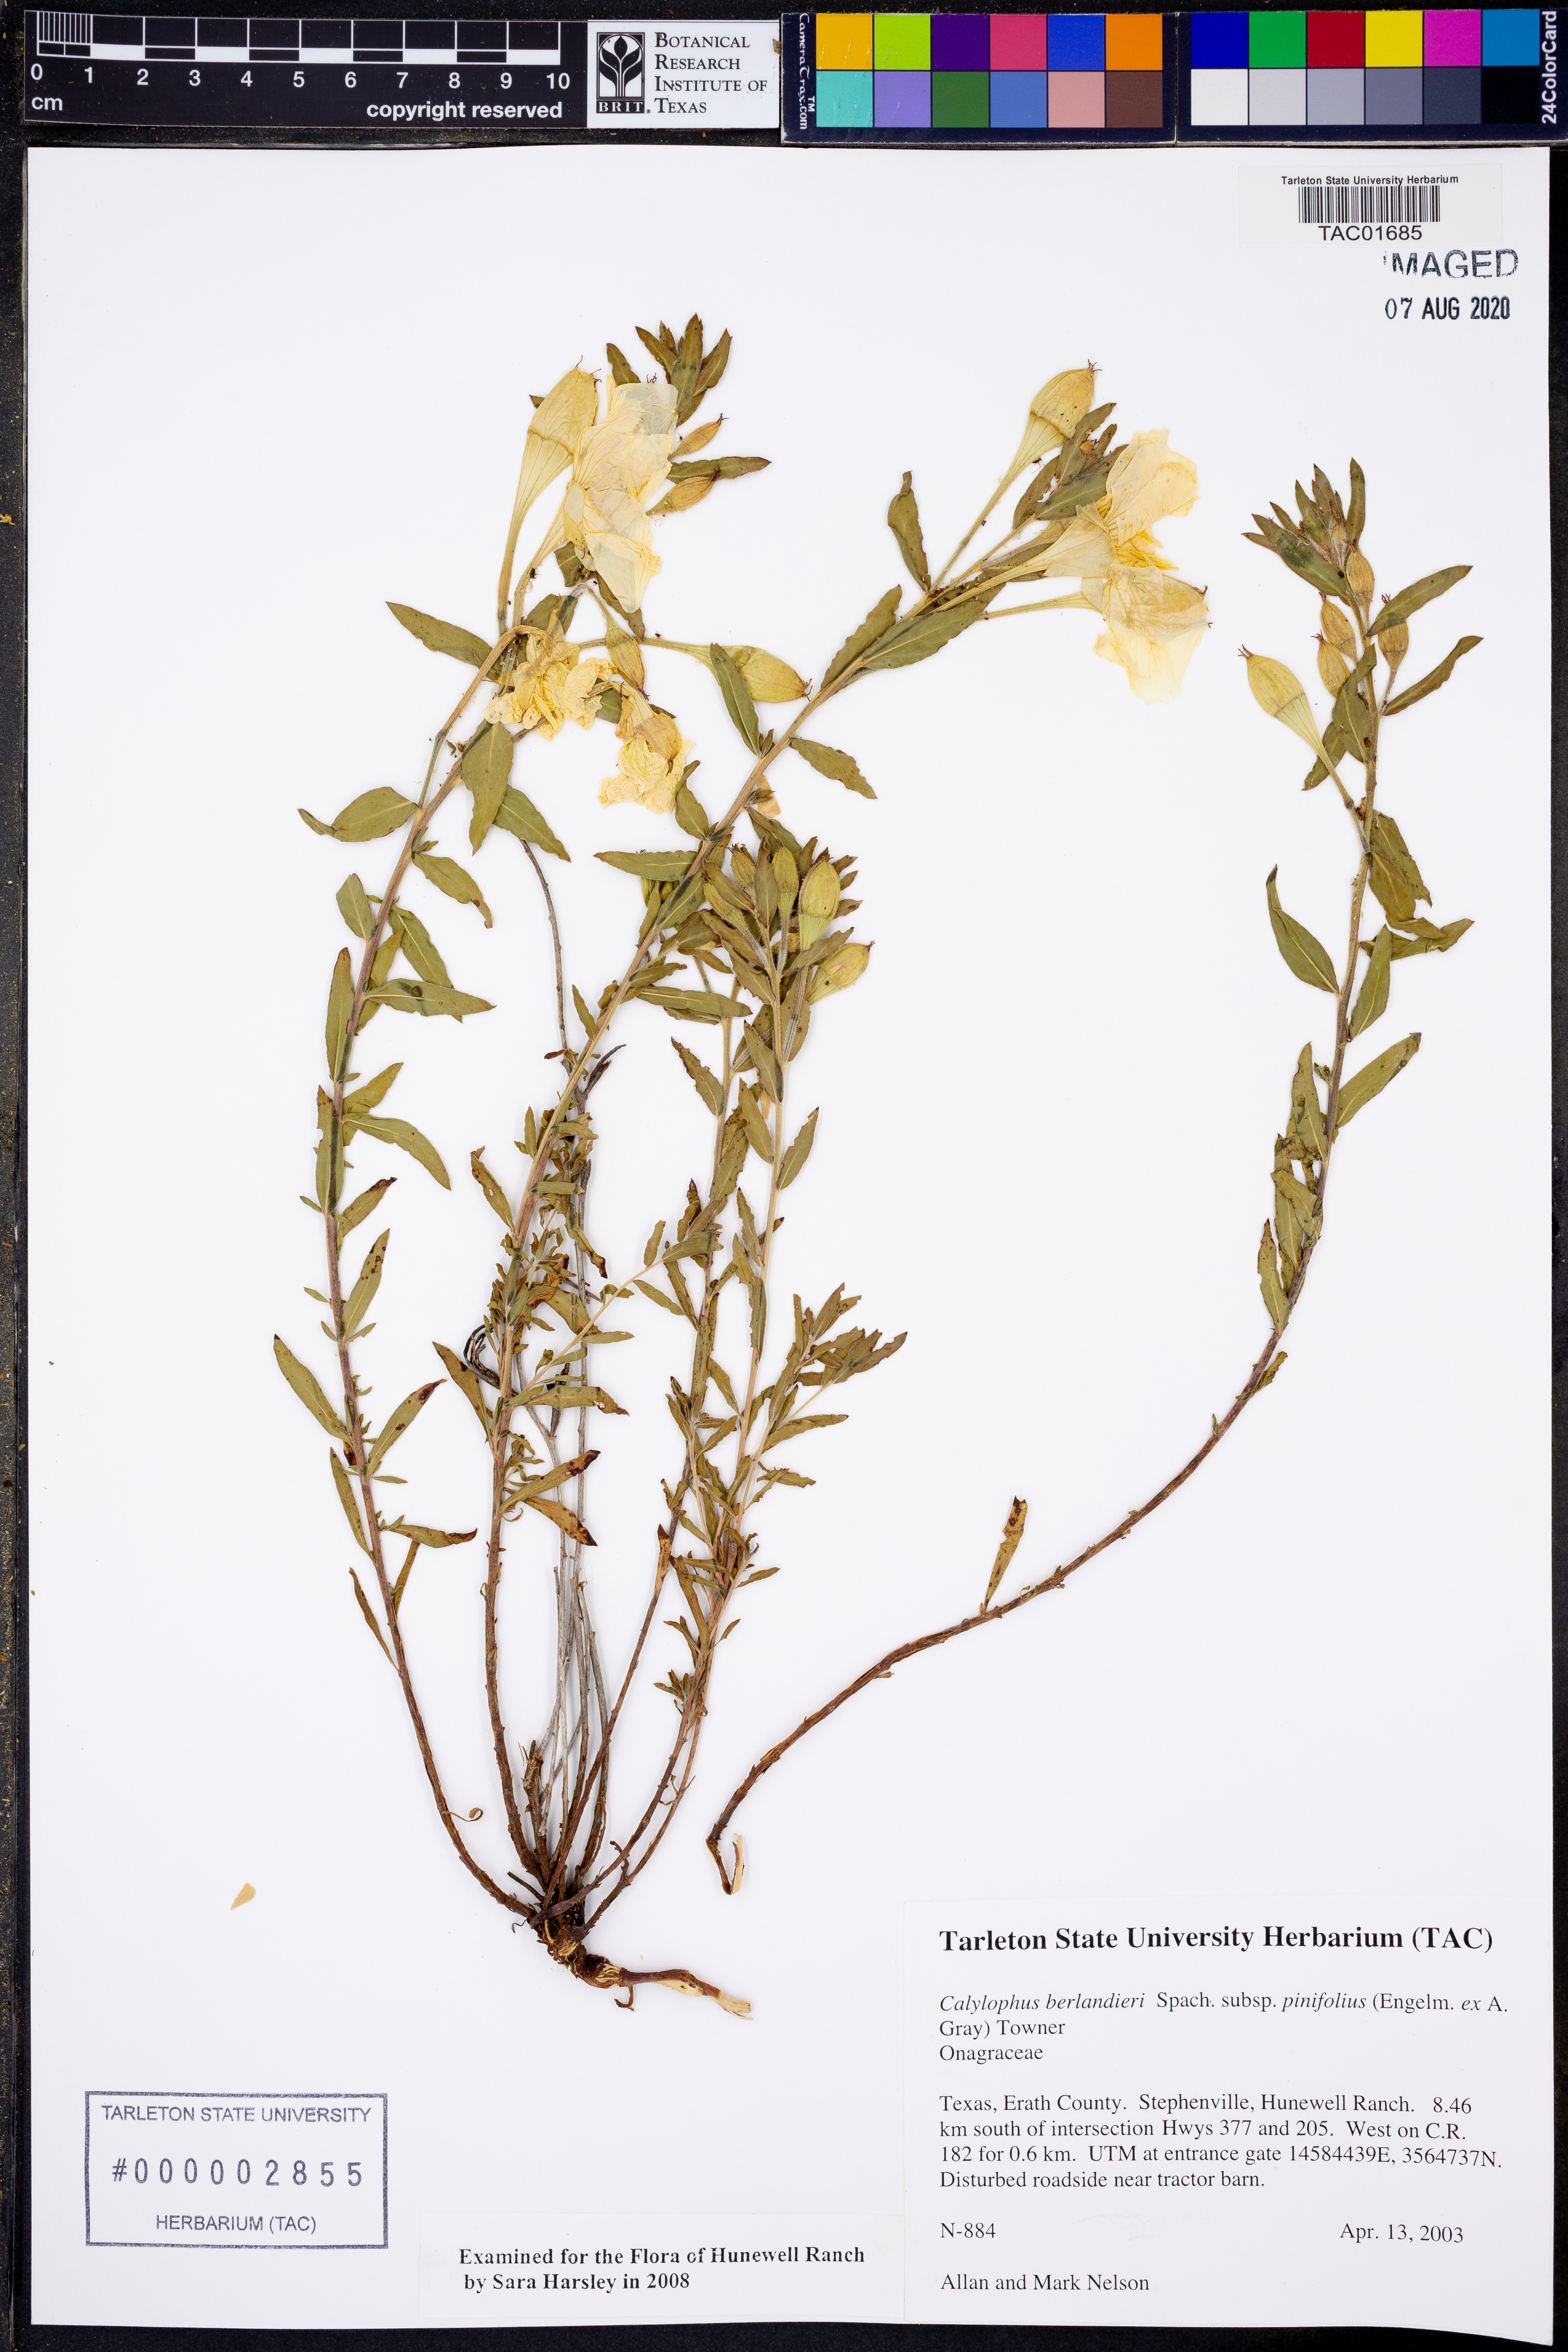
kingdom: Plantae
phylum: Tracheophyta
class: Magnoliopsida
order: Myrtales
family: Onagraceae
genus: Oenothera
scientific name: Oenothera capillifolia
